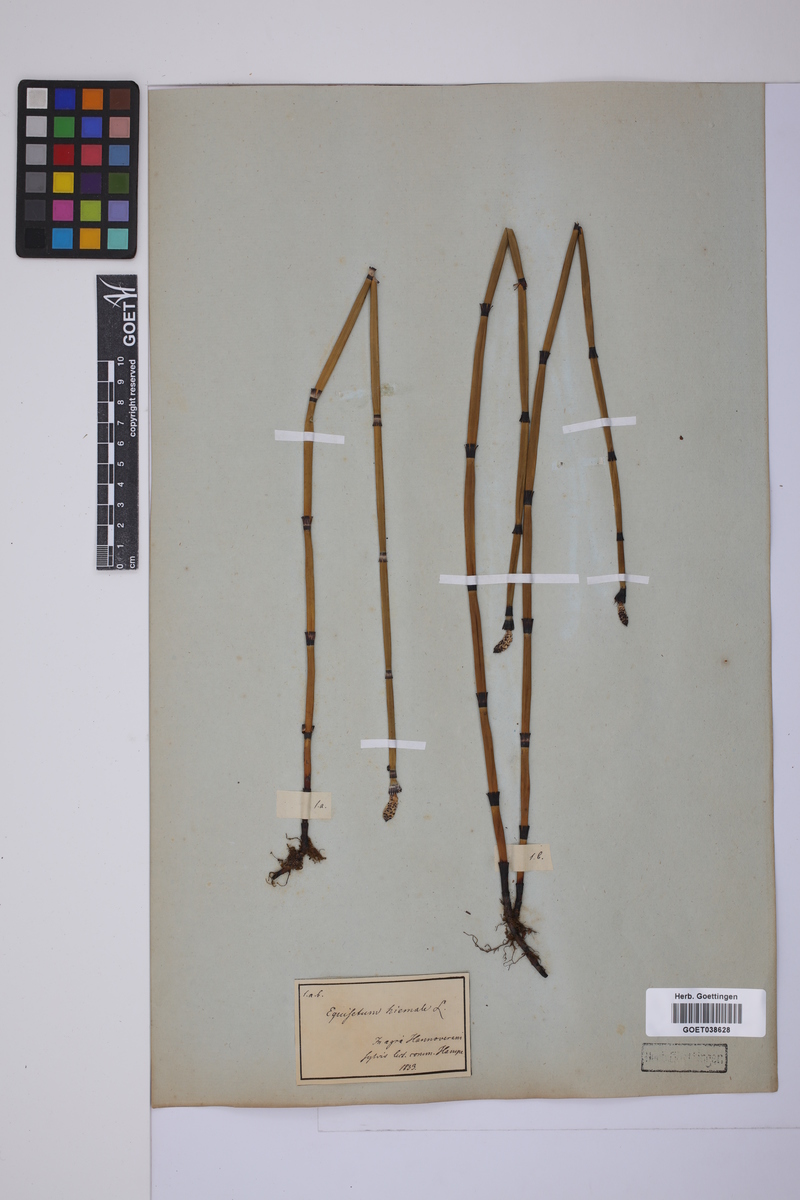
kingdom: Plantae
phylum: Tracheophyta
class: Polypodiopsida
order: Equisetales
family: Equisetaceae
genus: Equisetum
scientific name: Equisetum hyemale
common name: Rough horsetail
